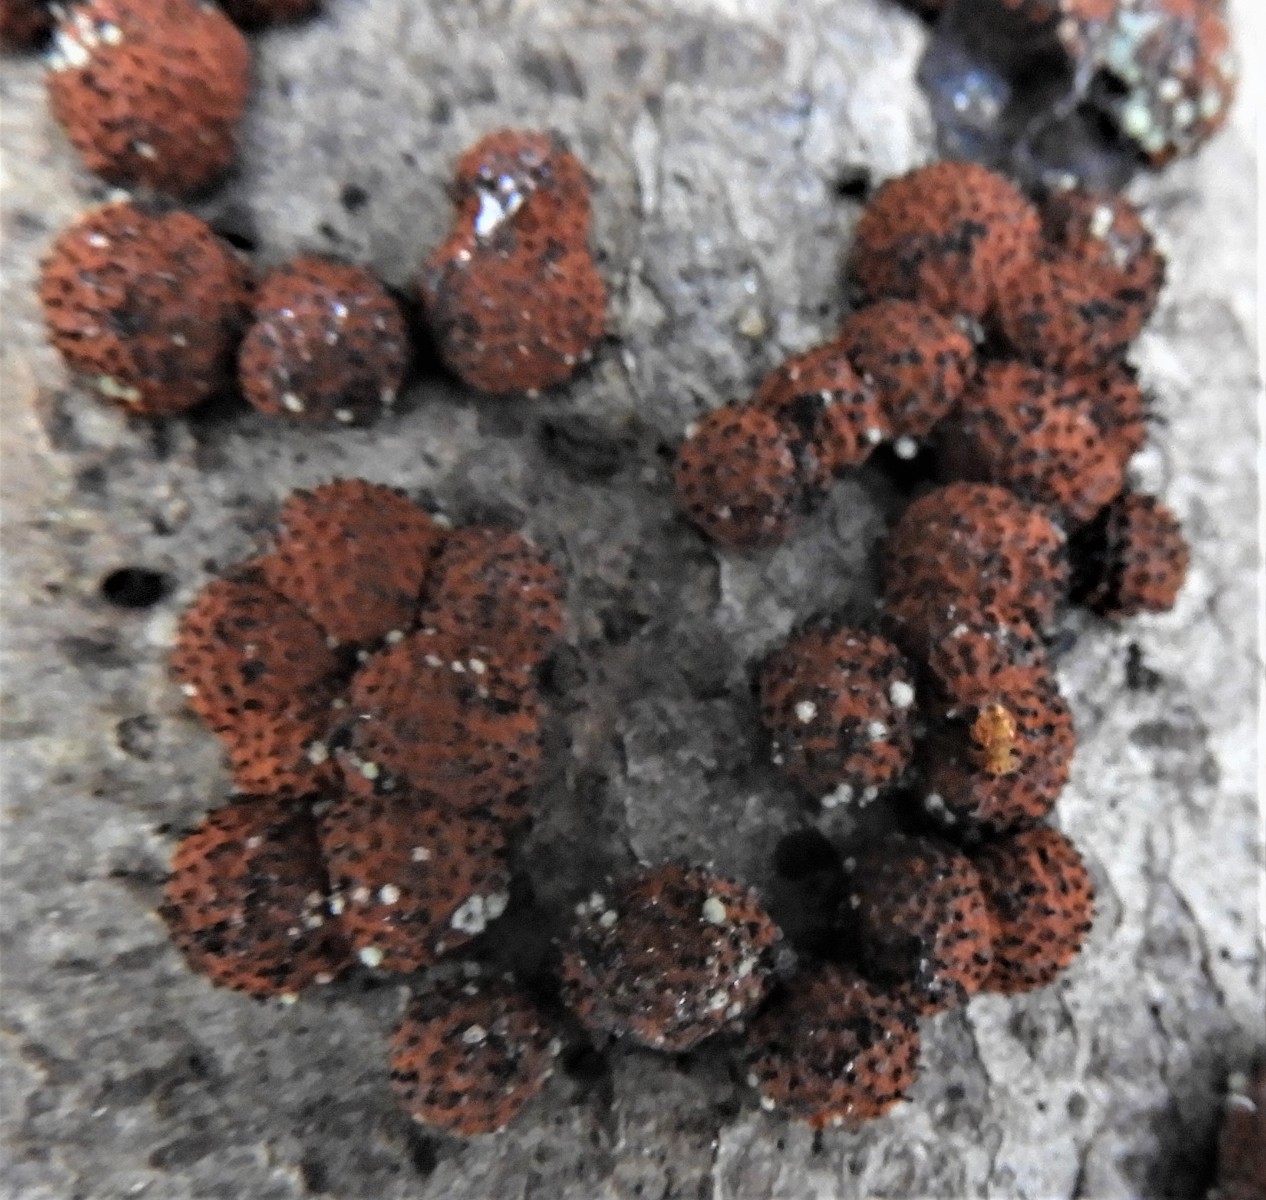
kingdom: Fungi
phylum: Ascomycota
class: Sordariomycetes
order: Xylariales
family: Hypoxylaceae
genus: Hypoxylon
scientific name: Hypoxylon fragiforme
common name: kuljordbær
